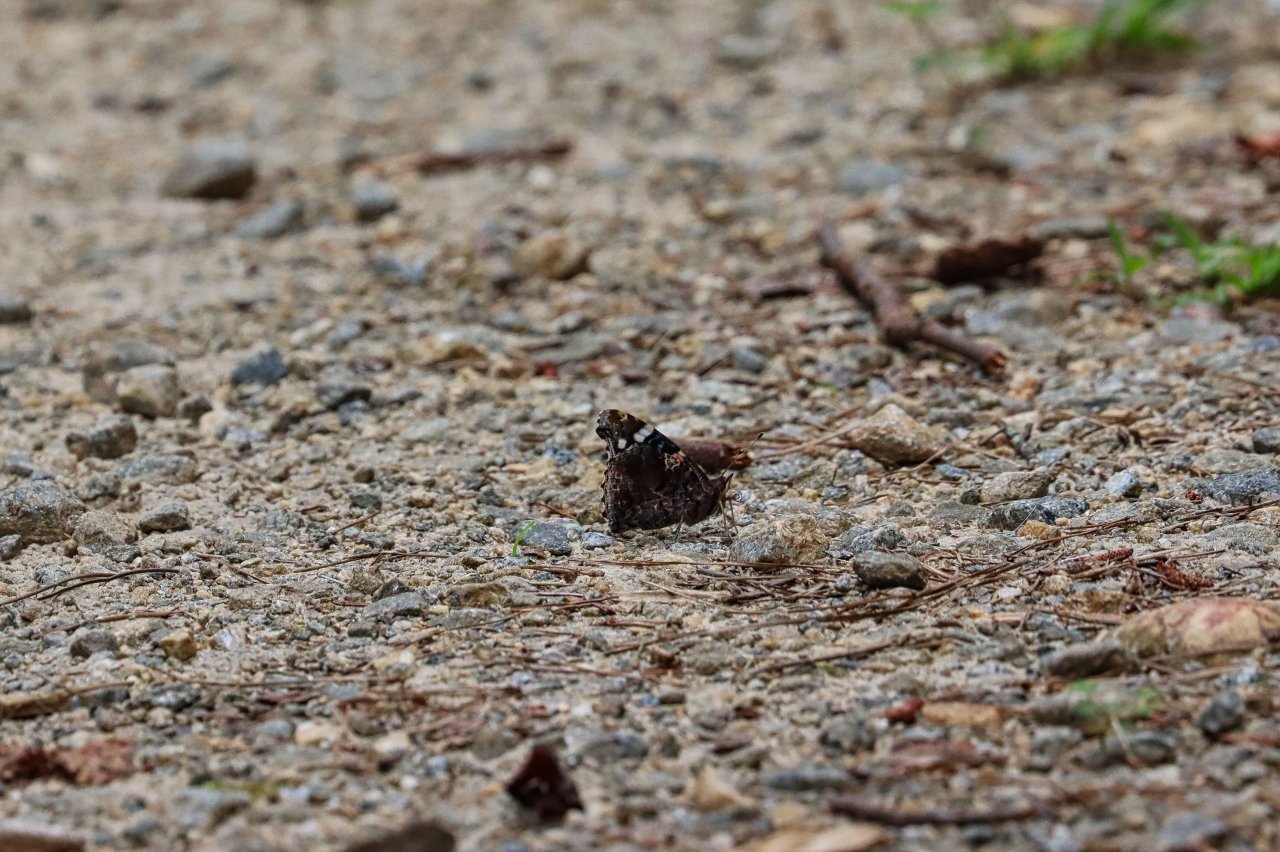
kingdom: Animalia
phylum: Arthropoda
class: Insecta
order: Lepidoptera
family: Nymphalidae
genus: Vanessa
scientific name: Vanessa atalanta
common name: Red Admiral
